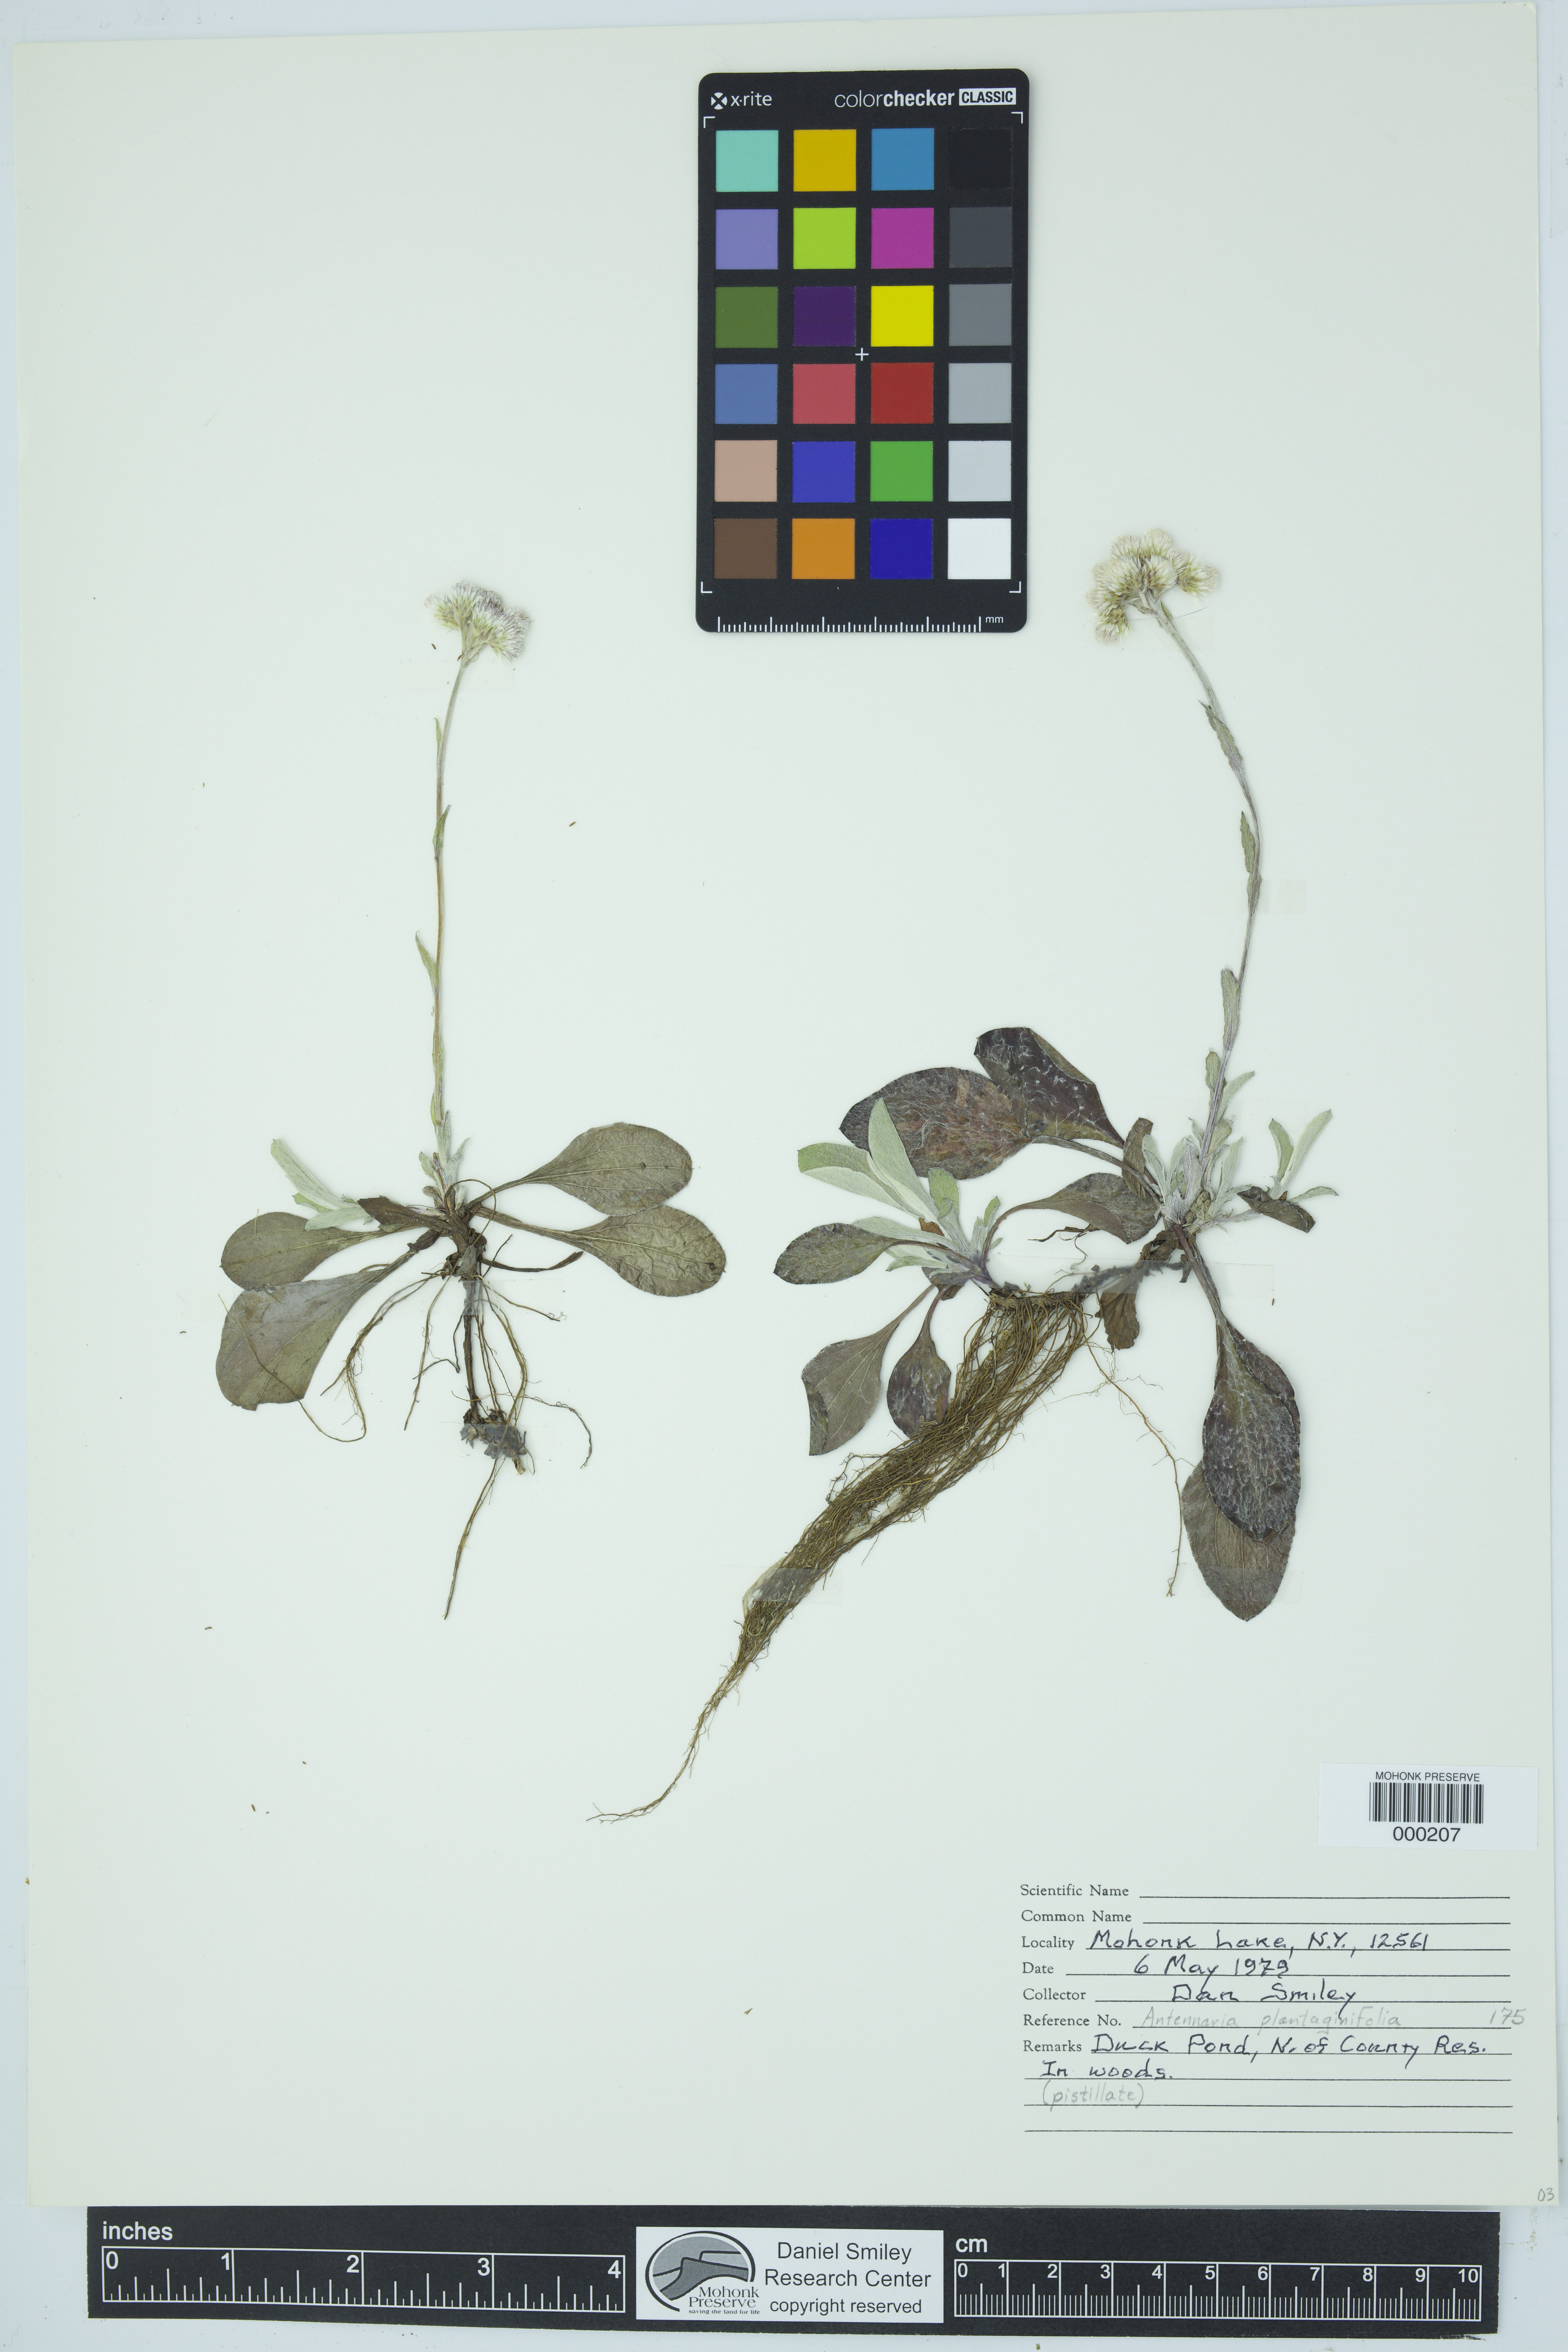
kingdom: Plantae
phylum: Tracheophyta
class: Magnoliopsida
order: Asterales
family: Asteraceae
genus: Antennaria
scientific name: Antennaria plantaginifolia
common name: Plantain-leaved pussytoes
